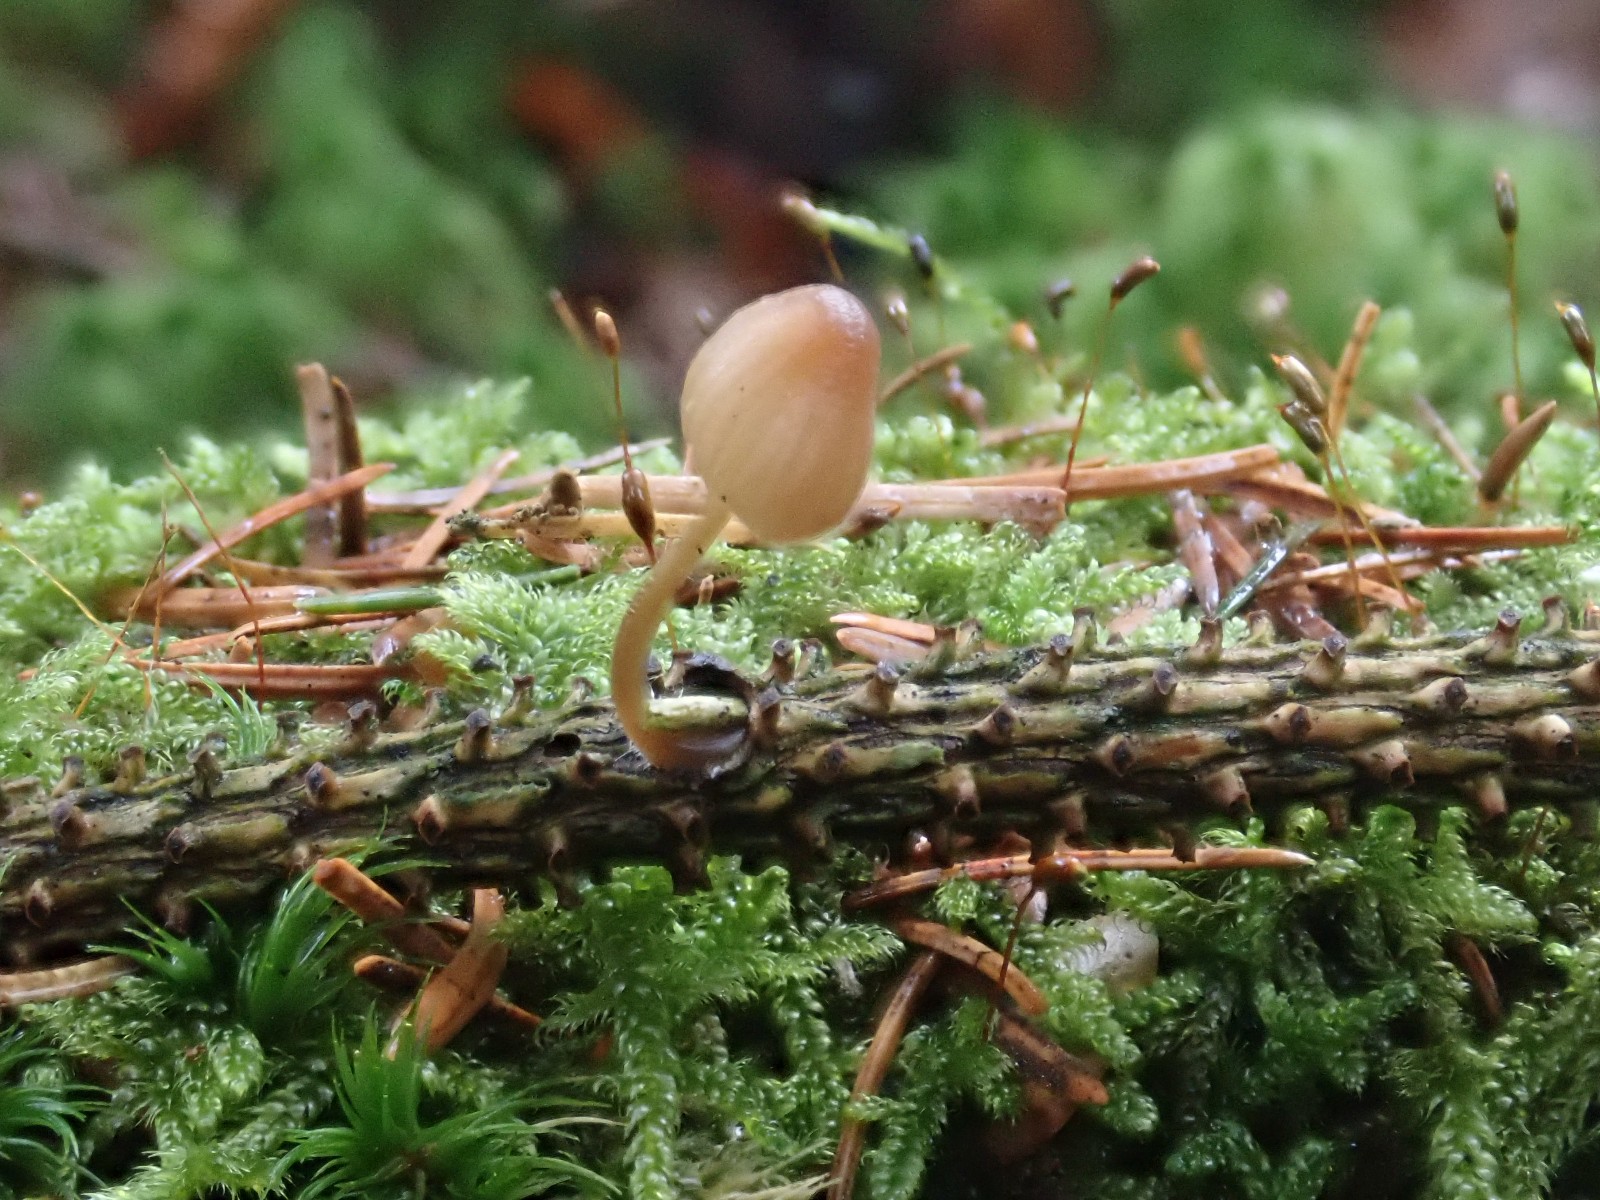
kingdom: Fungi
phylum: Basidiomycota
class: Agaricomycetes
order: Agaricales
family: Mycenaceae
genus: Mycena
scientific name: Mycena metata
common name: rødlig huesvamp
